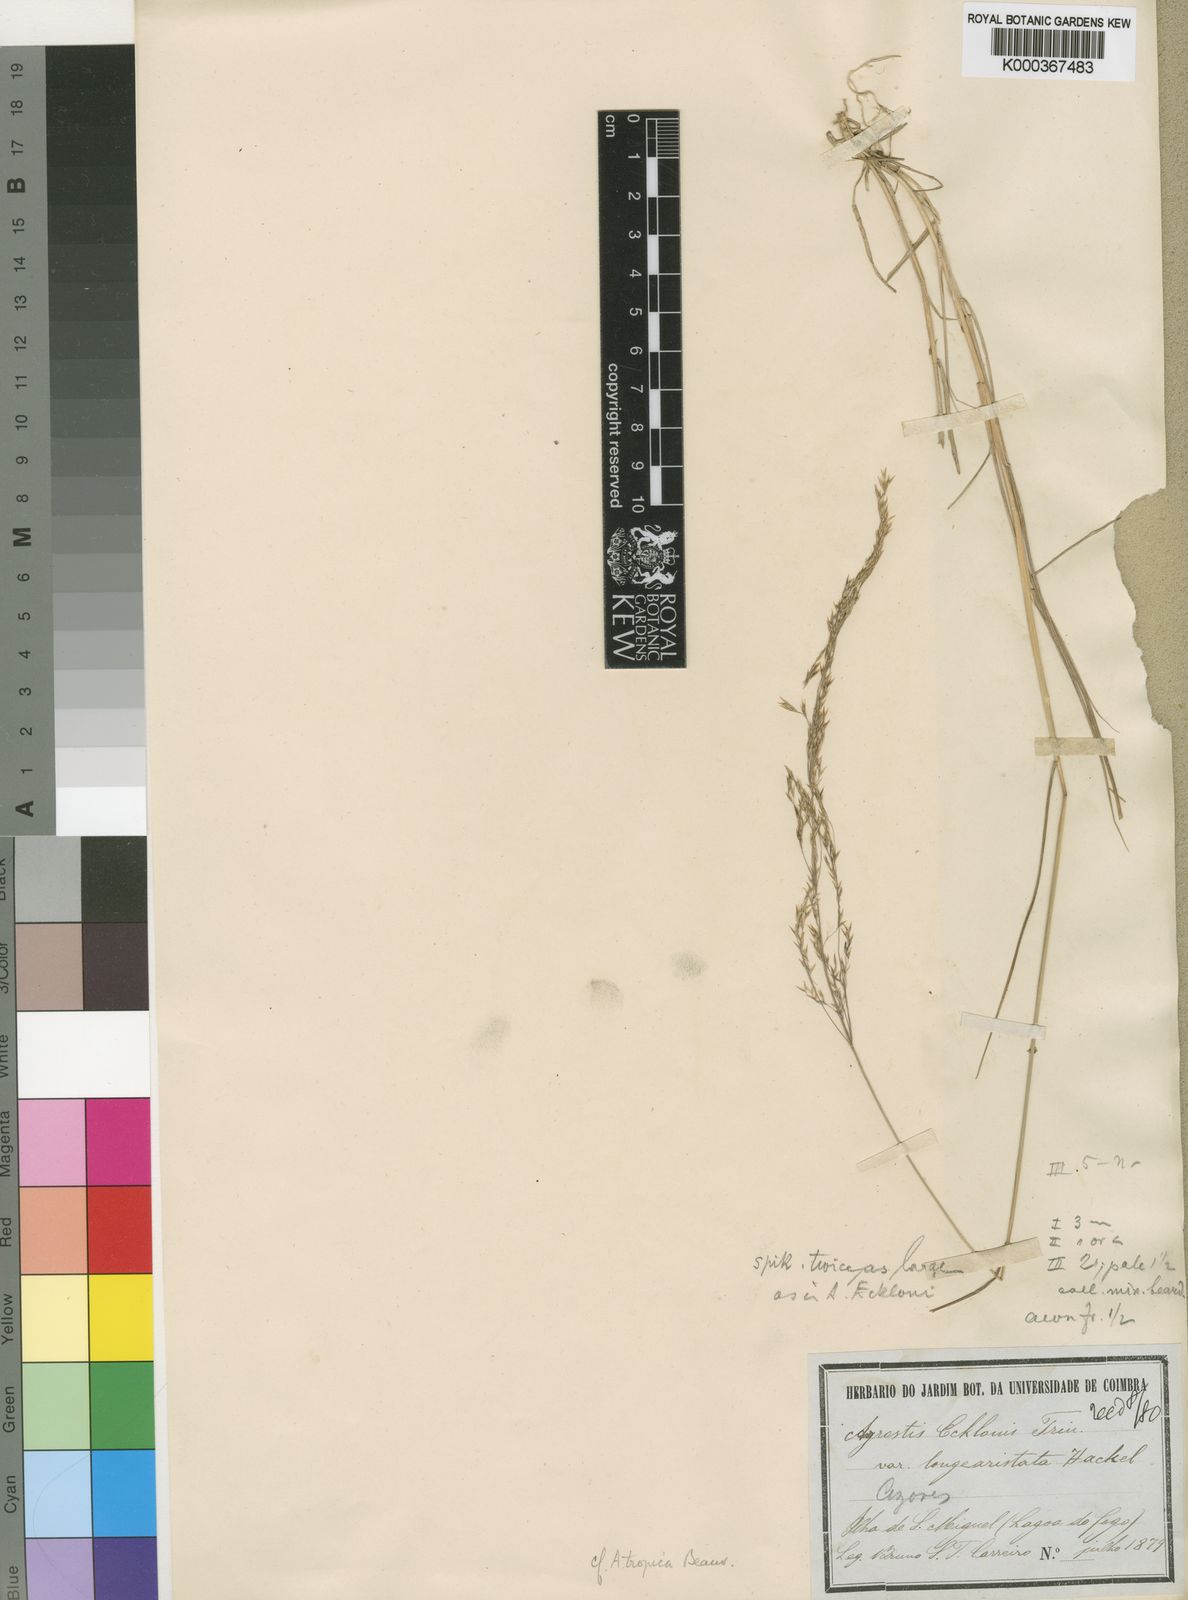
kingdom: Plantae
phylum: Tracheophyta
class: Liliopsida
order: Poales
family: Poaceae
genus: Agrostis
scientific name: Agrostis bergiana
